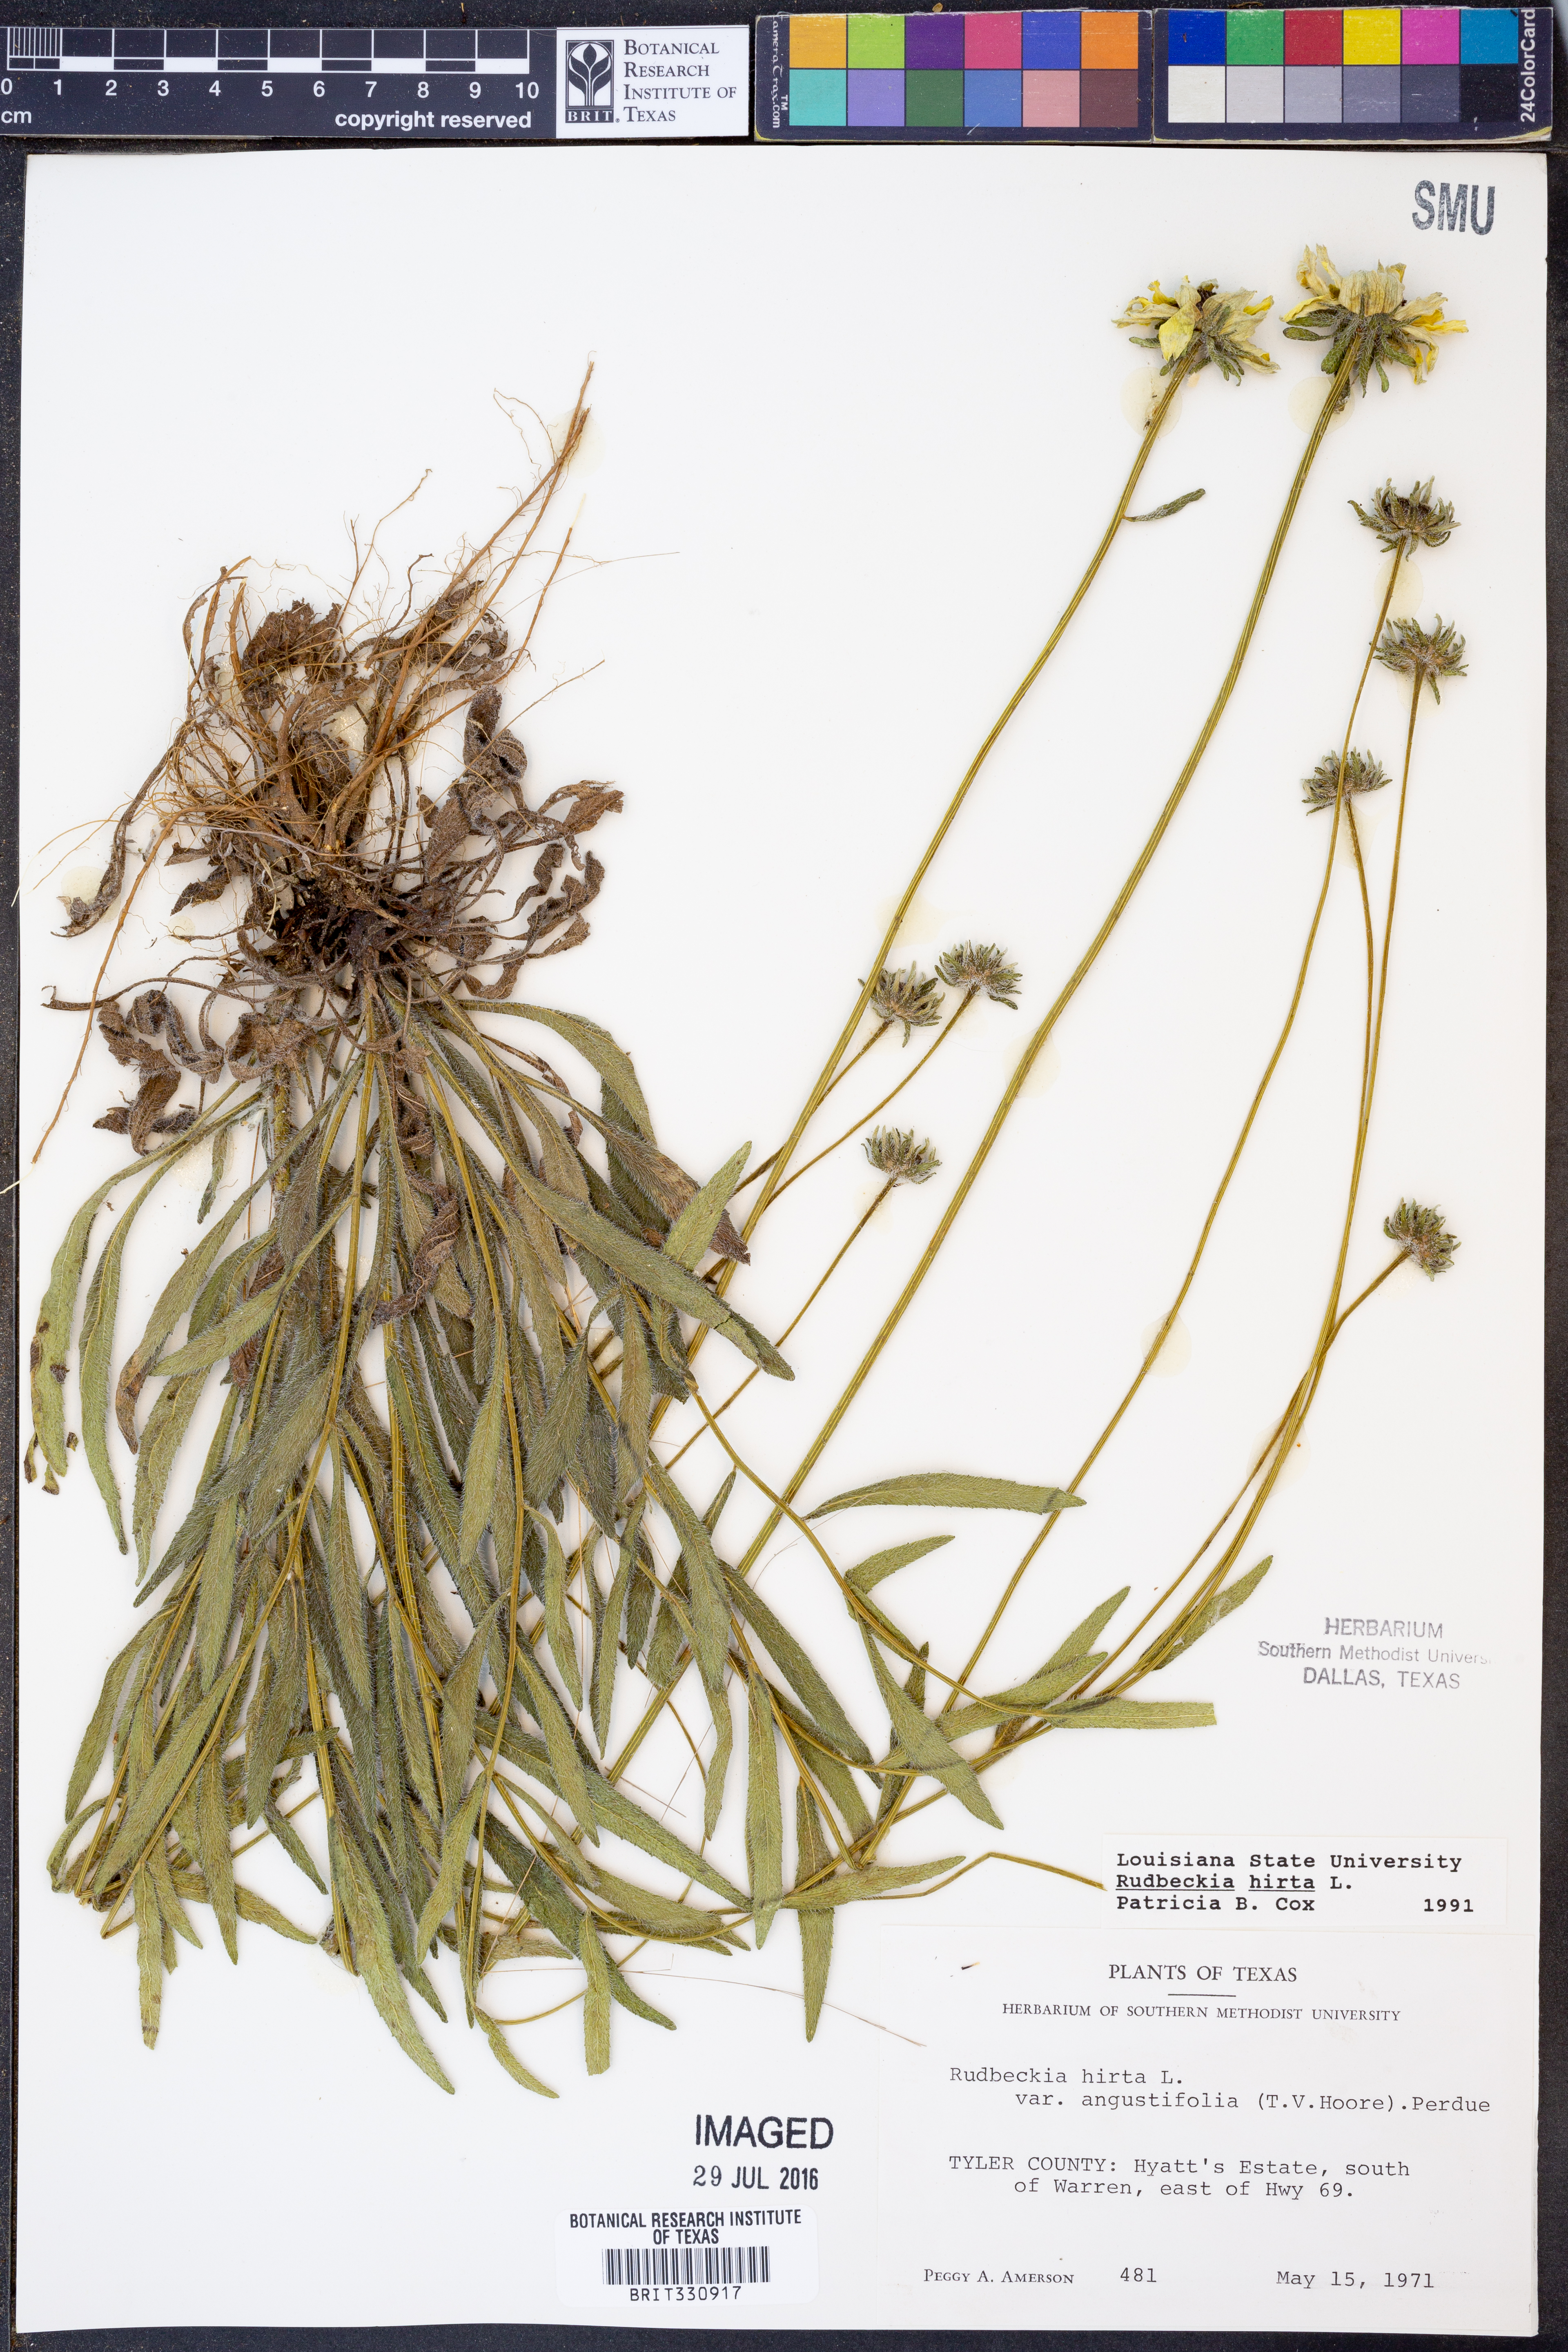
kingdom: Plantae
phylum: Tracheophyta
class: Magnoliopsida
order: Asterales
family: Asteraceae
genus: Rudbeckia
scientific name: Rudbeckia hirta
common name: Black-eyed-susan
